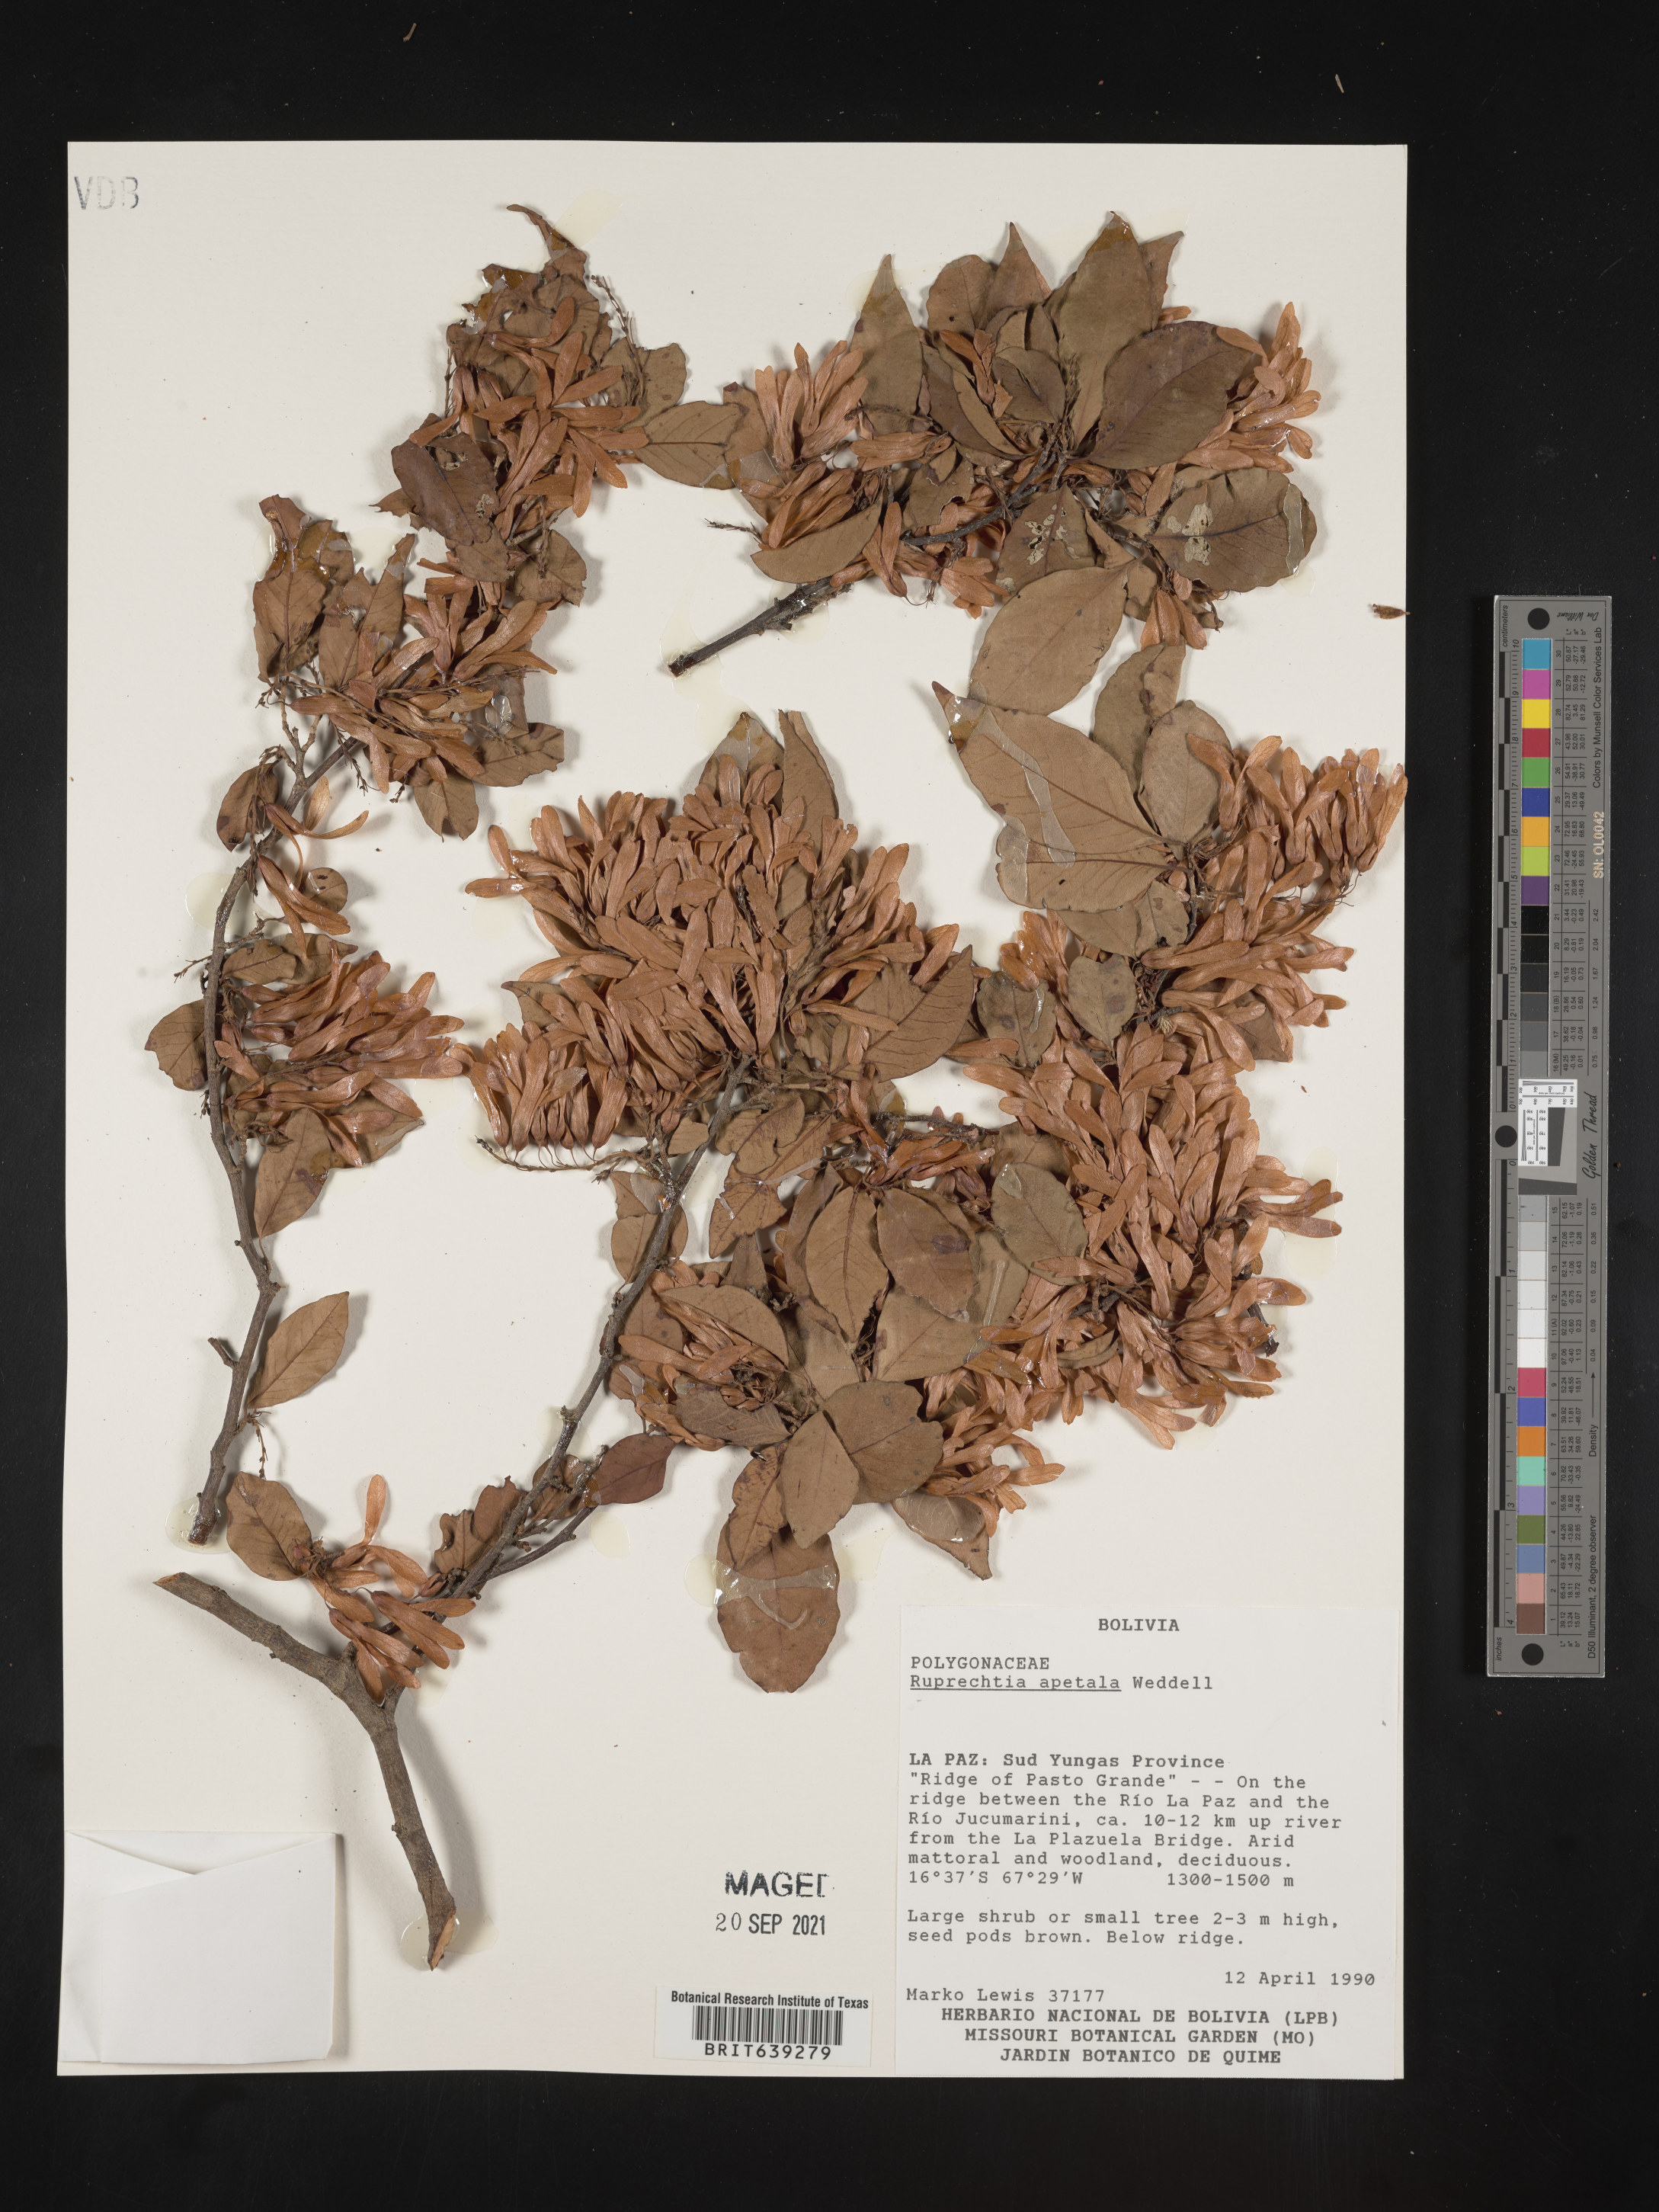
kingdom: Plantae
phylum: Tracheophyta
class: Magnoliopsida
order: Caryophyllales
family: Polygonaceae
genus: Ruprechtia
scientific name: Ruprechtia
